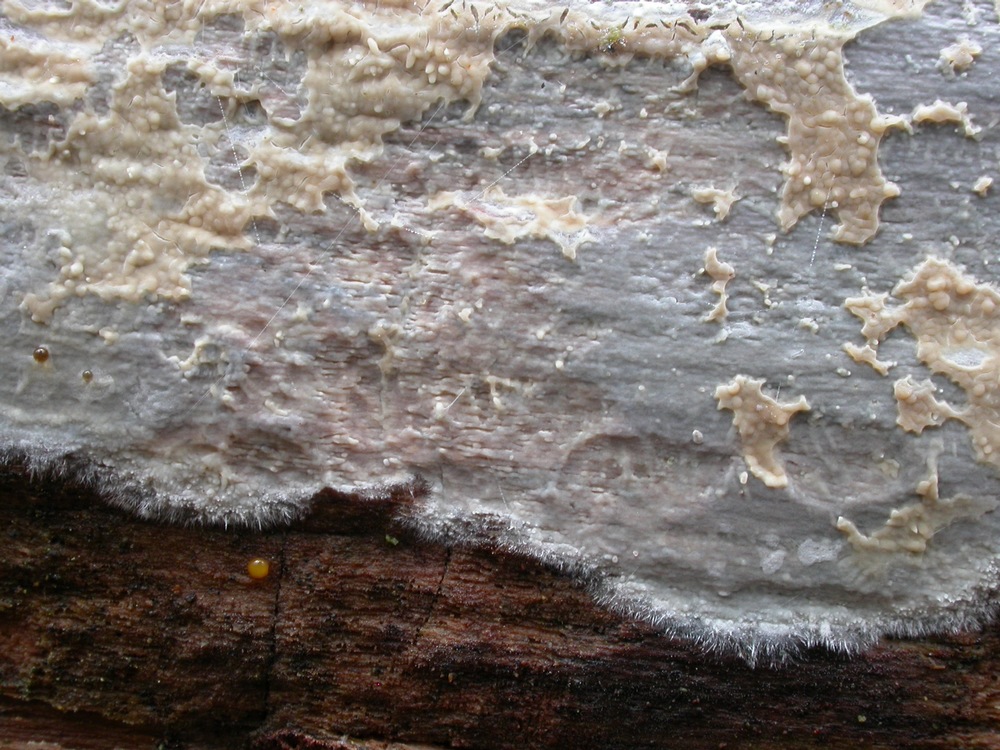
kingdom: Fungi
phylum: Basidiomycota
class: Agaricomycetes
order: Russulales
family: Stereaceae
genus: Gloeocystidiellum
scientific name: Gloeocystidiellum porosum
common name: mælkehvid olieskind
